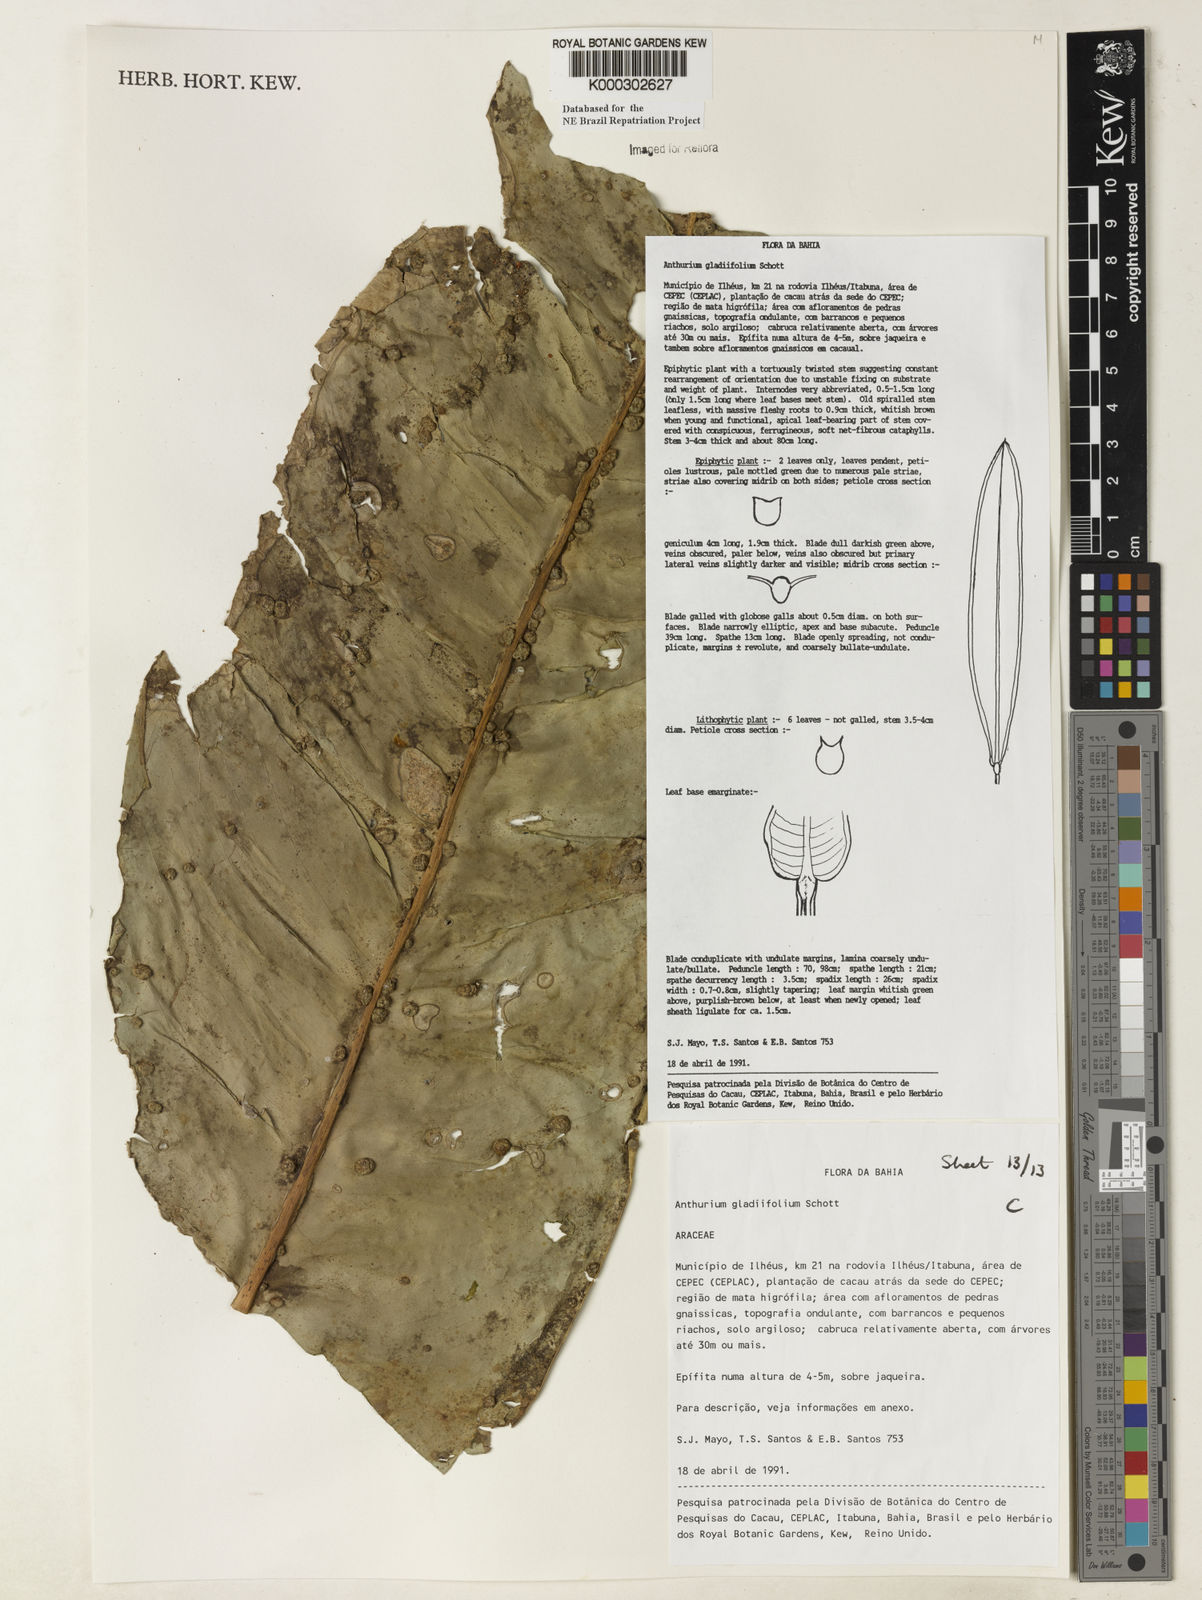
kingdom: Plantae
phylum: Tracheophyta
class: Liliopsida
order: Alismatales
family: Araceae
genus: Anthurium
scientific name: Anthurium gladiifolium
